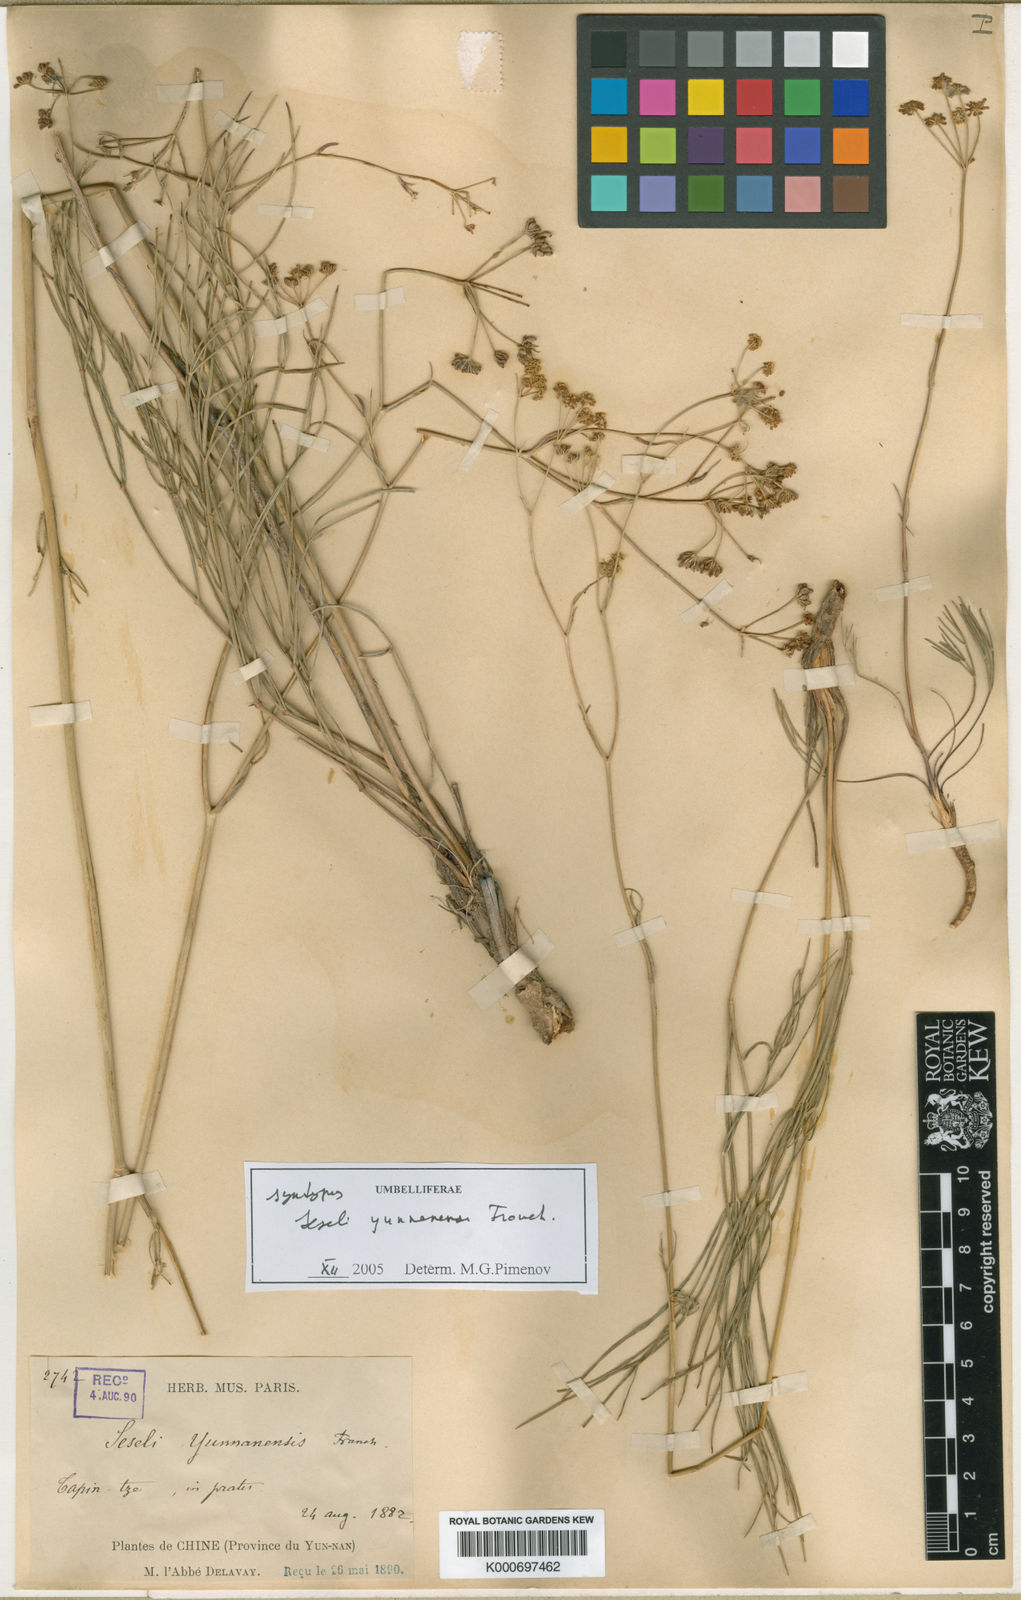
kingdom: Plantae
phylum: Tracheophyta
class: Magnoliopsida
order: Apiales
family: Apiaceae
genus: Seseli
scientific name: Seseli yunnanense
